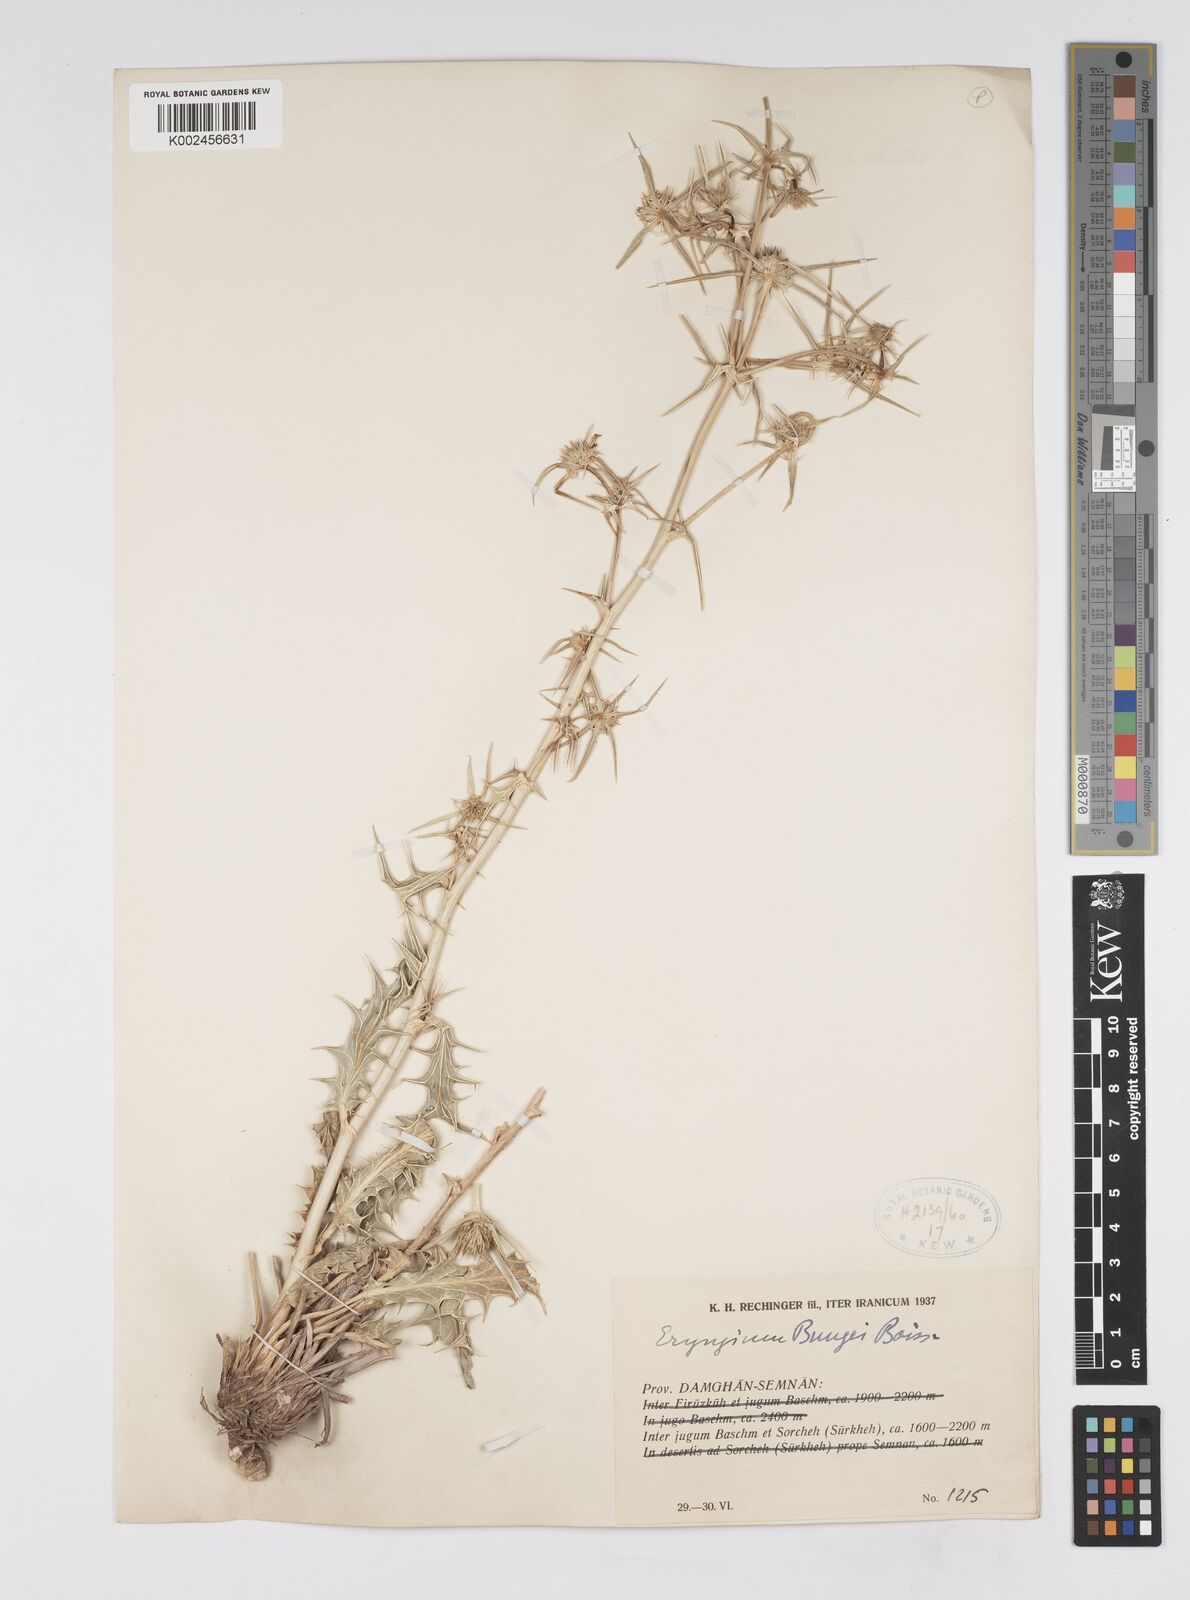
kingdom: Plantae
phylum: Tracheophyta
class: Magnoliopsida
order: Apiales
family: Apiaceae
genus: Eryngium
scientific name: Eryngium bungei
